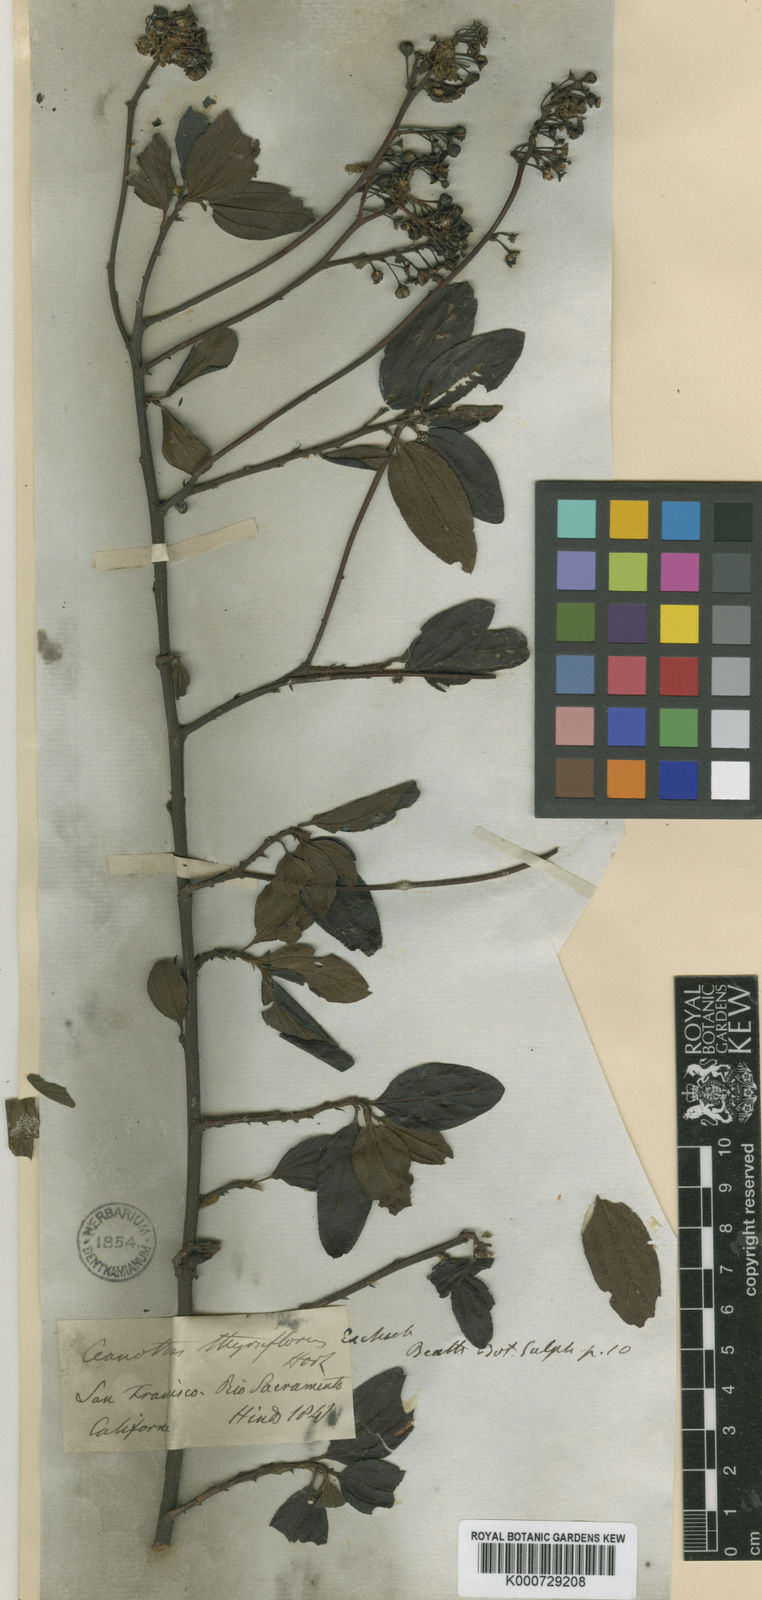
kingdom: Plantae
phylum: Tracheophyta
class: Magnoliopsida
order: Rosales
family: Rhamnaceae
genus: Ceanothus
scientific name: Ceanothus thyrsiflorus
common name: California-lilac
